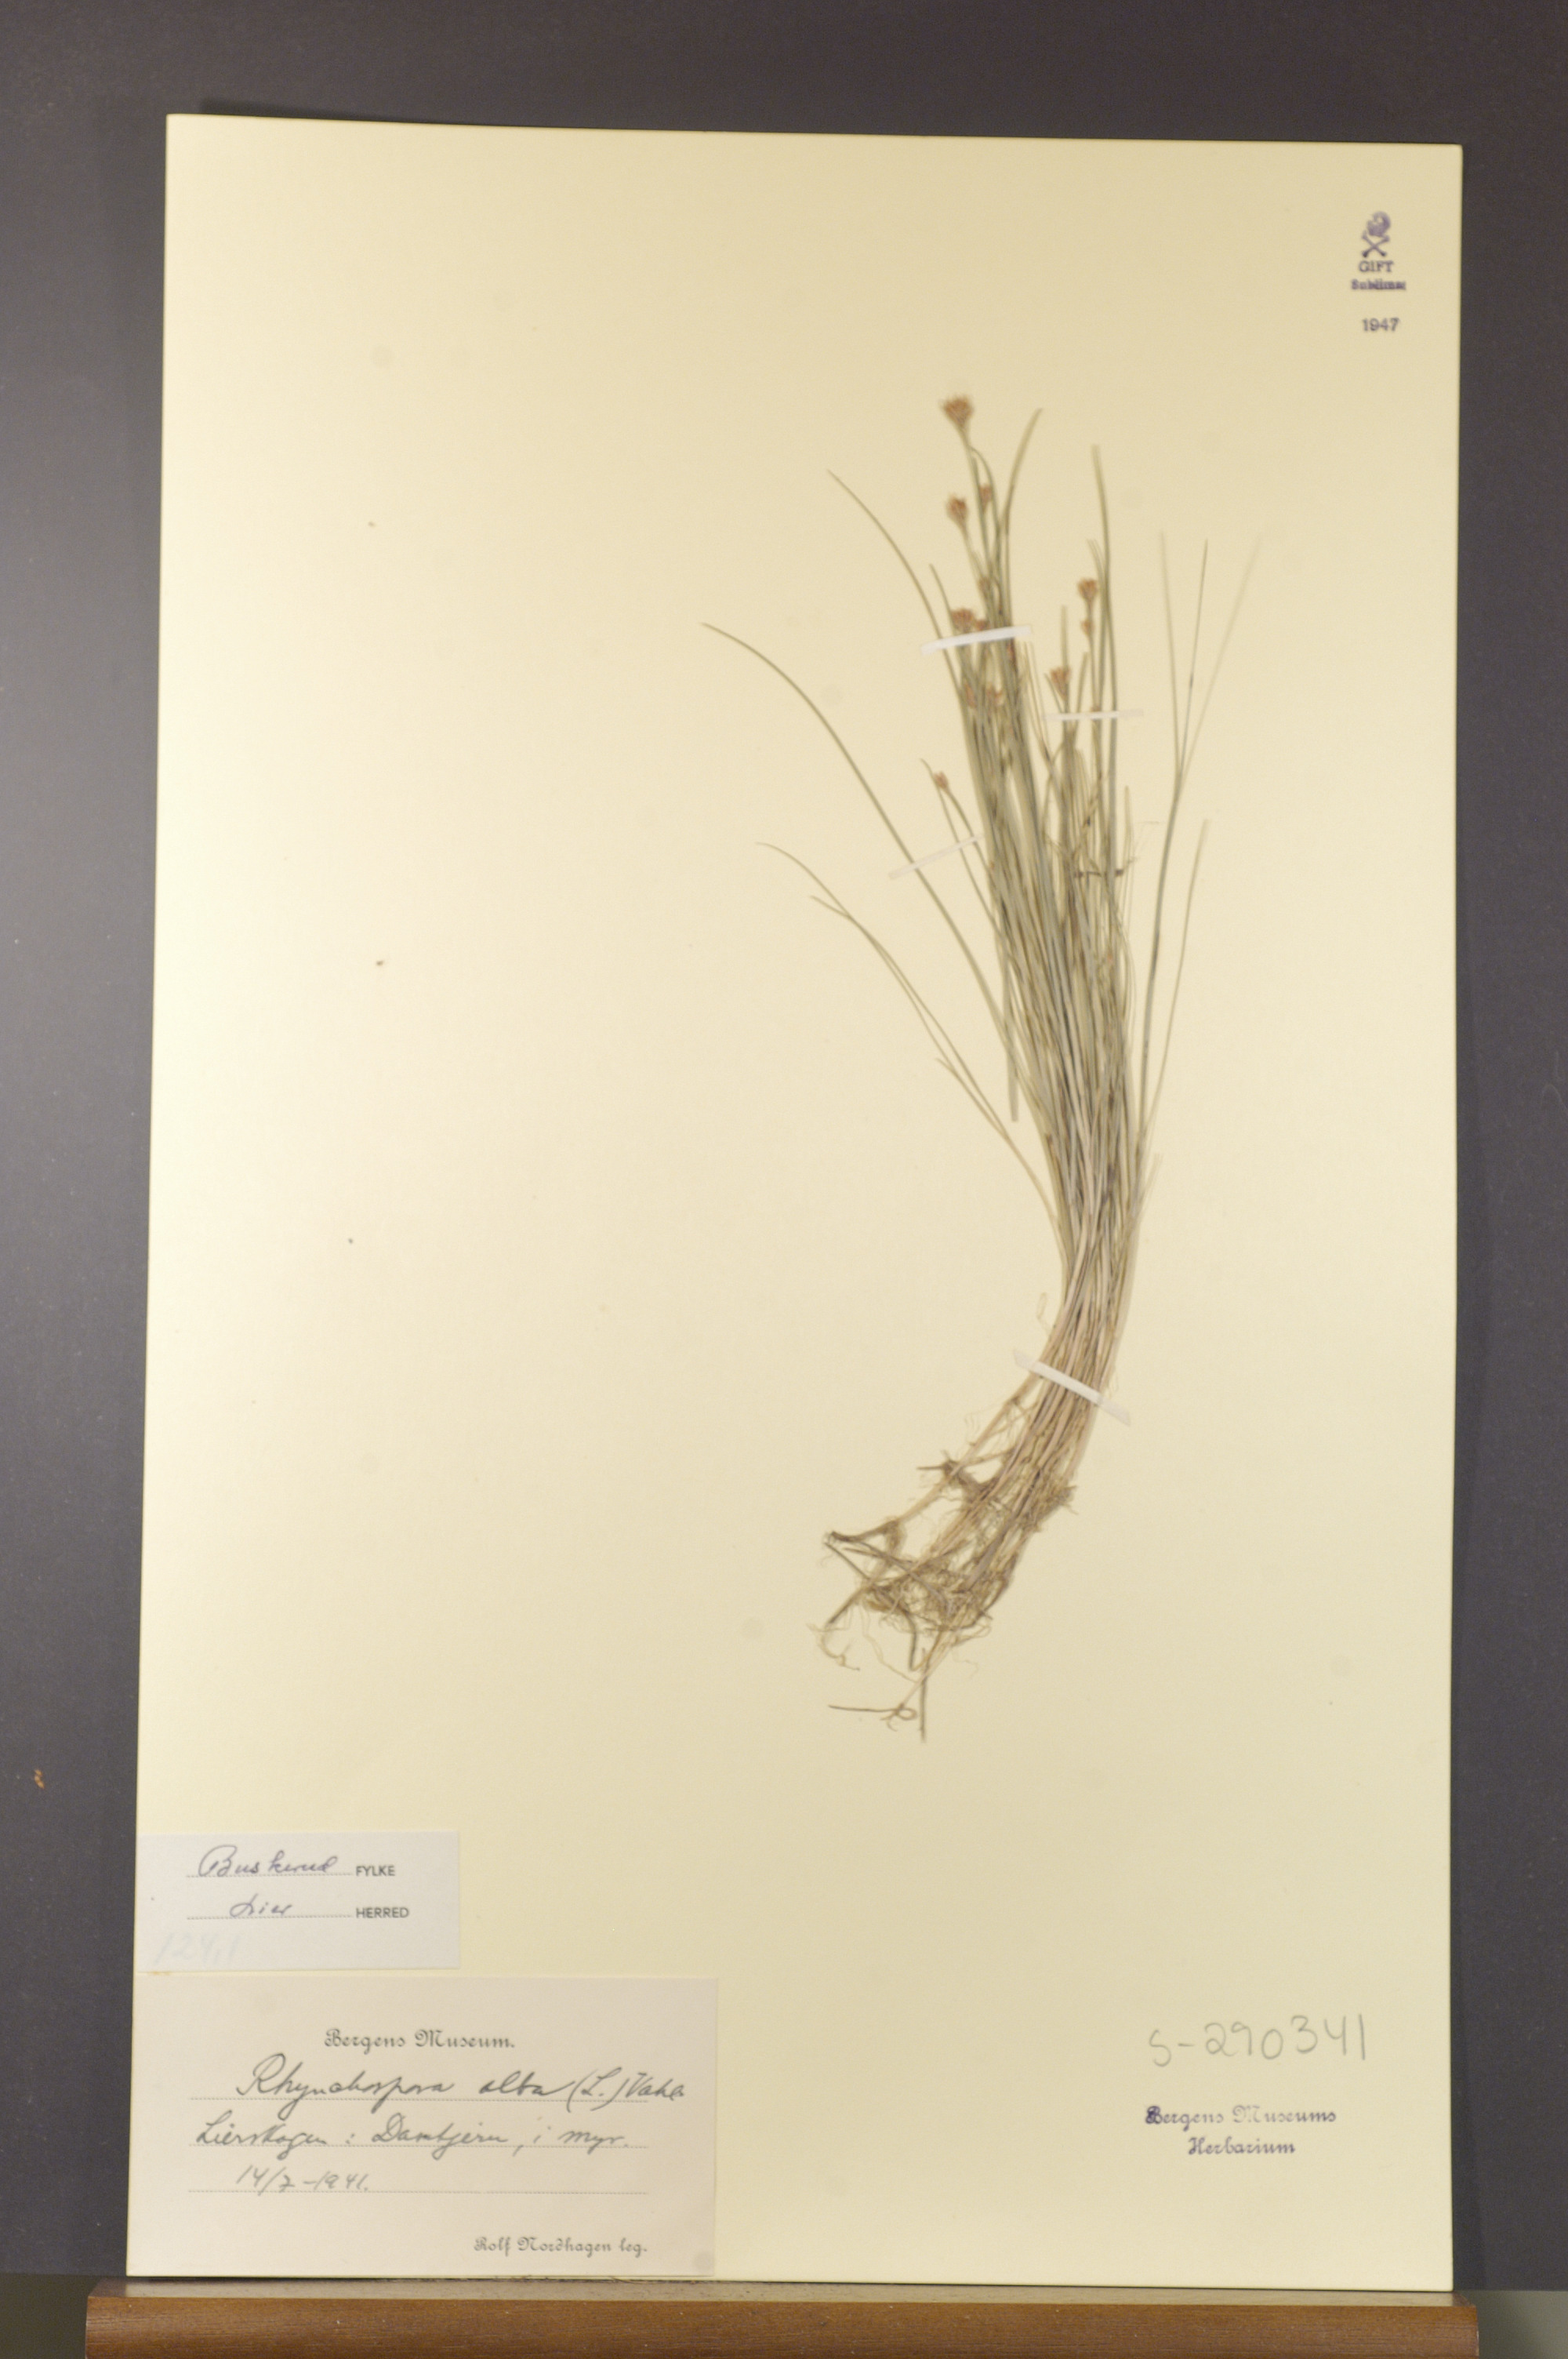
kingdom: Plantae
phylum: Tracheophyta
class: Liliopsida
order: Poales
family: Cyperaceae
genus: Rhynchospora
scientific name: Rhynchospora alba
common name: White beak-sedge
